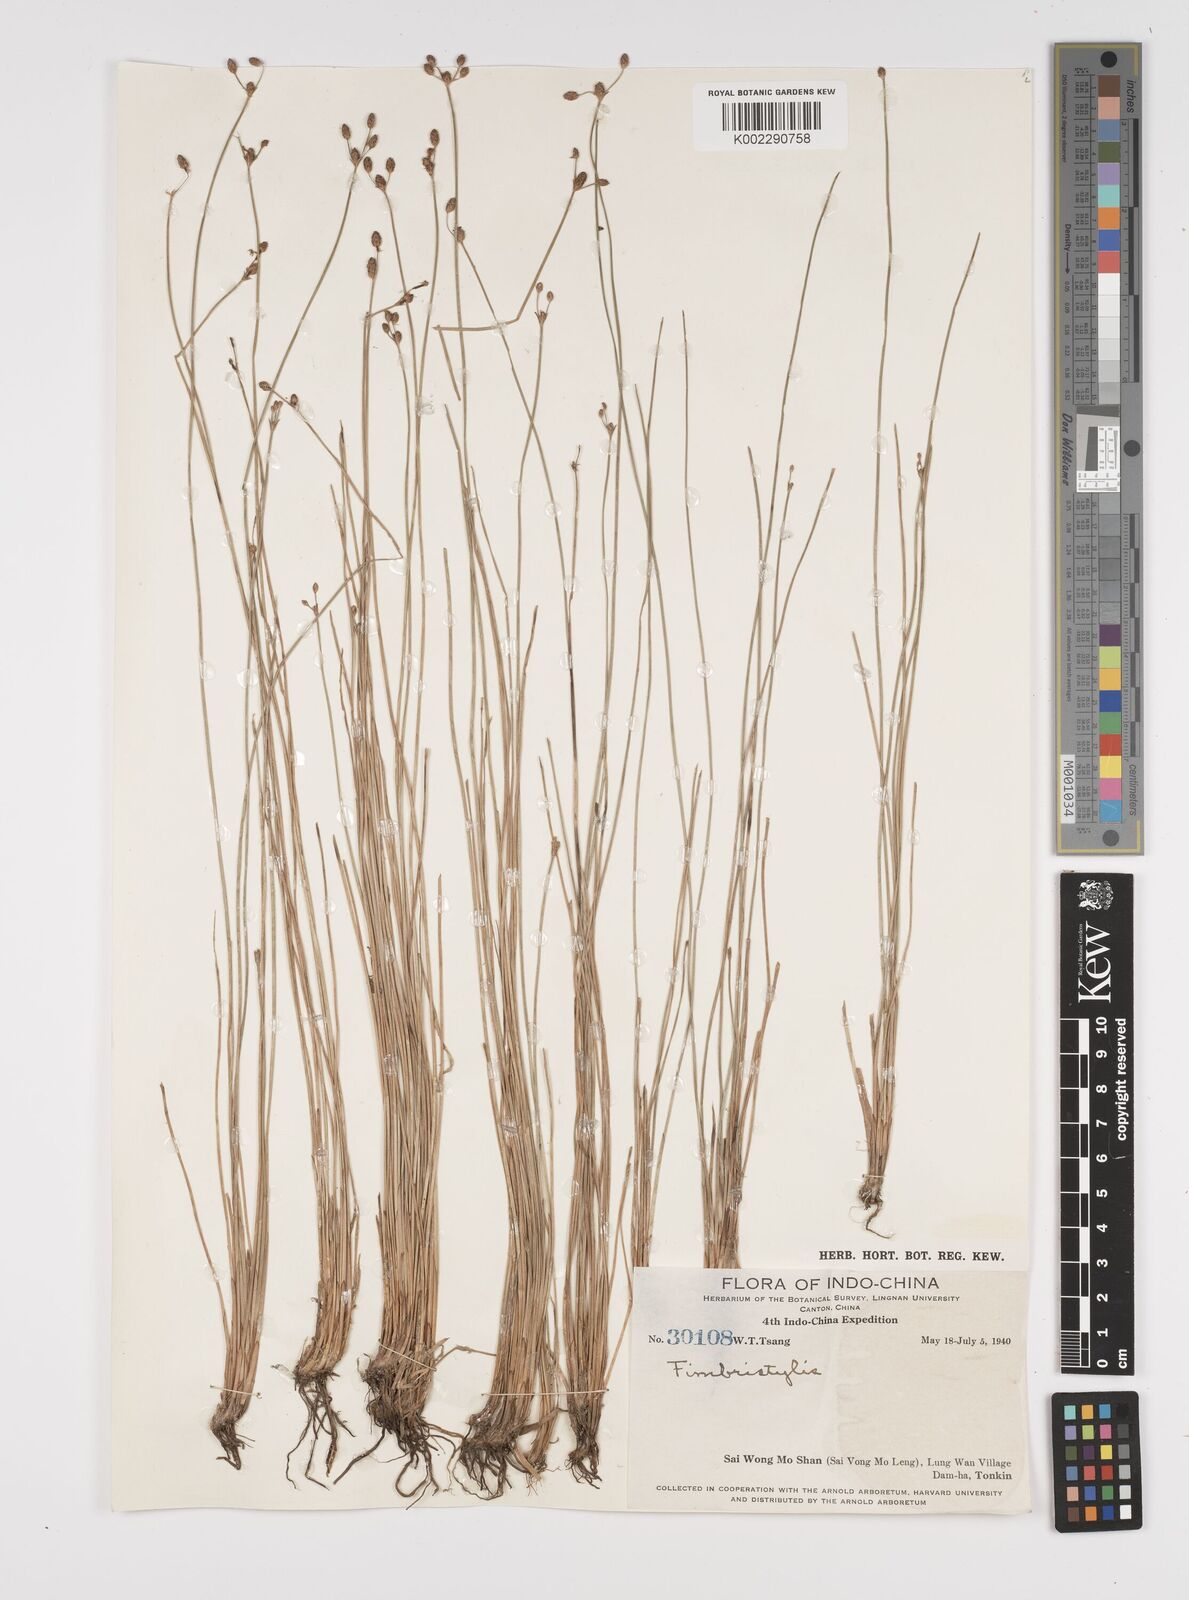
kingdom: Plantae
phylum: Tracheophyta
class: Liliopsida
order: Poales
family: Cyperaceae
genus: Fimbristylis
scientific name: Fimbristylis
